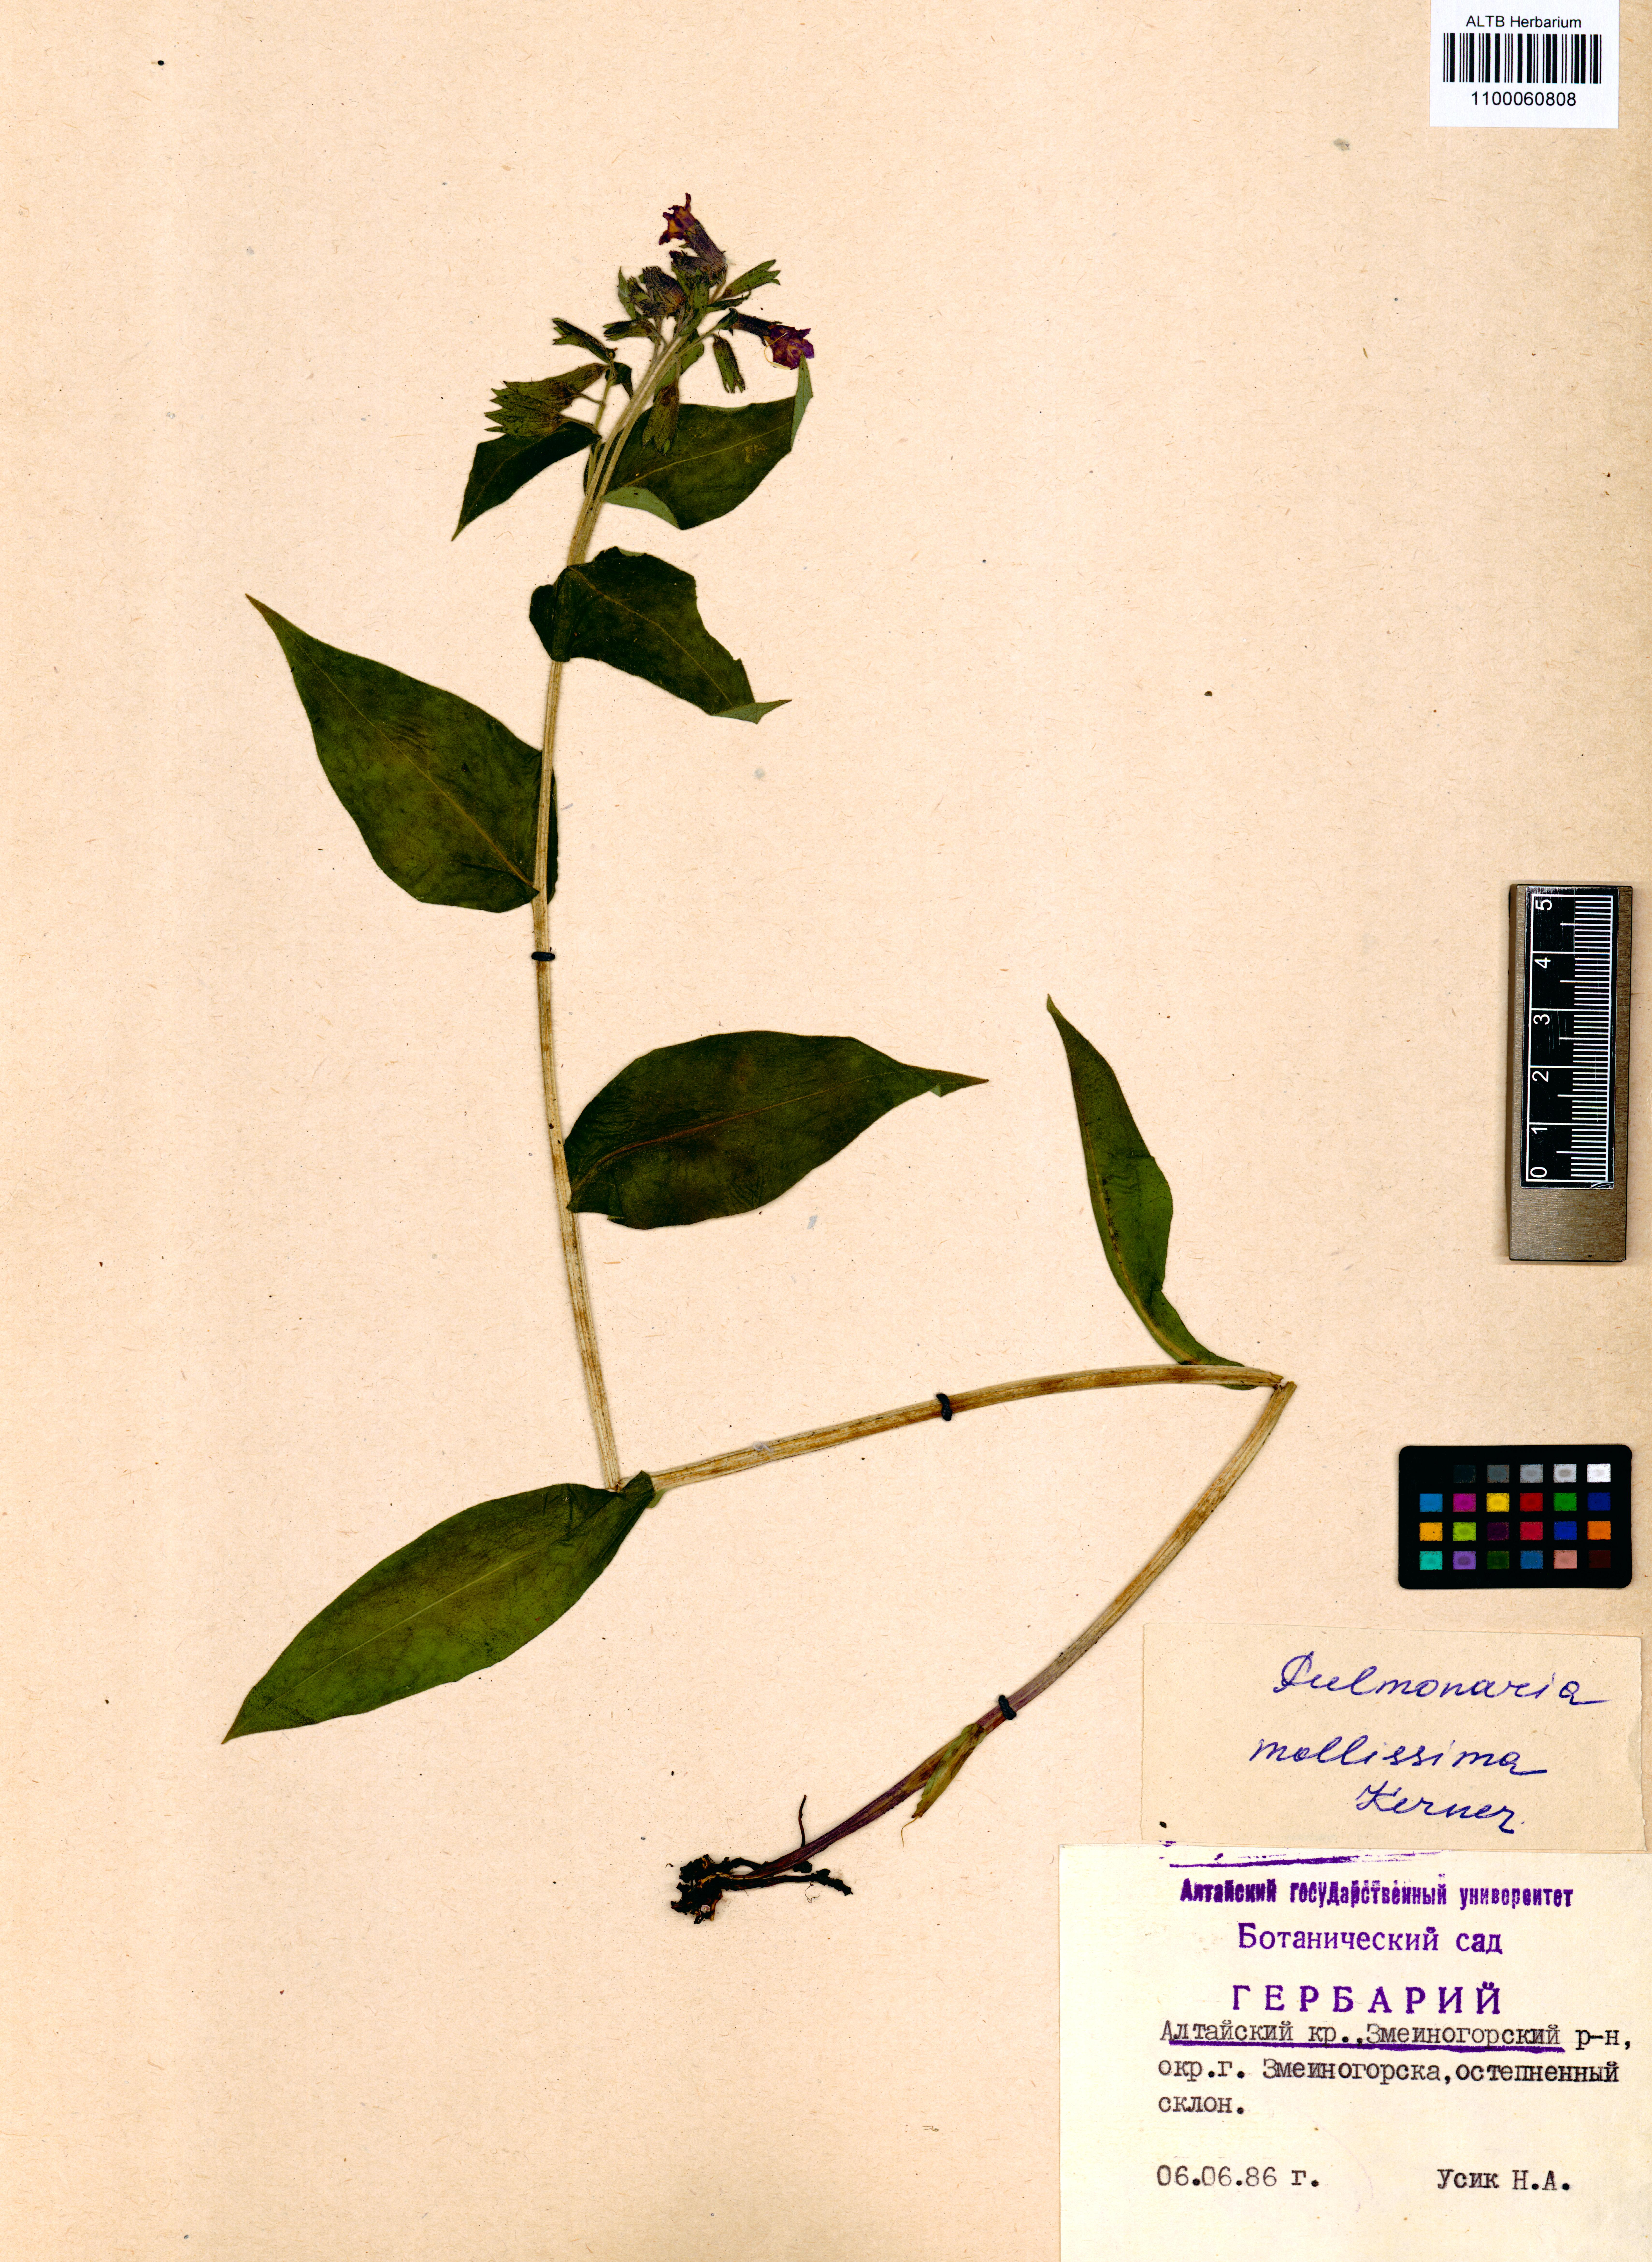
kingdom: Plantae
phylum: Tracheophyta
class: Magnoliopsida
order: Boraginales
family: Boraginaceae
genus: Pulmonaria
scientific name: Pulmonaria mollis
